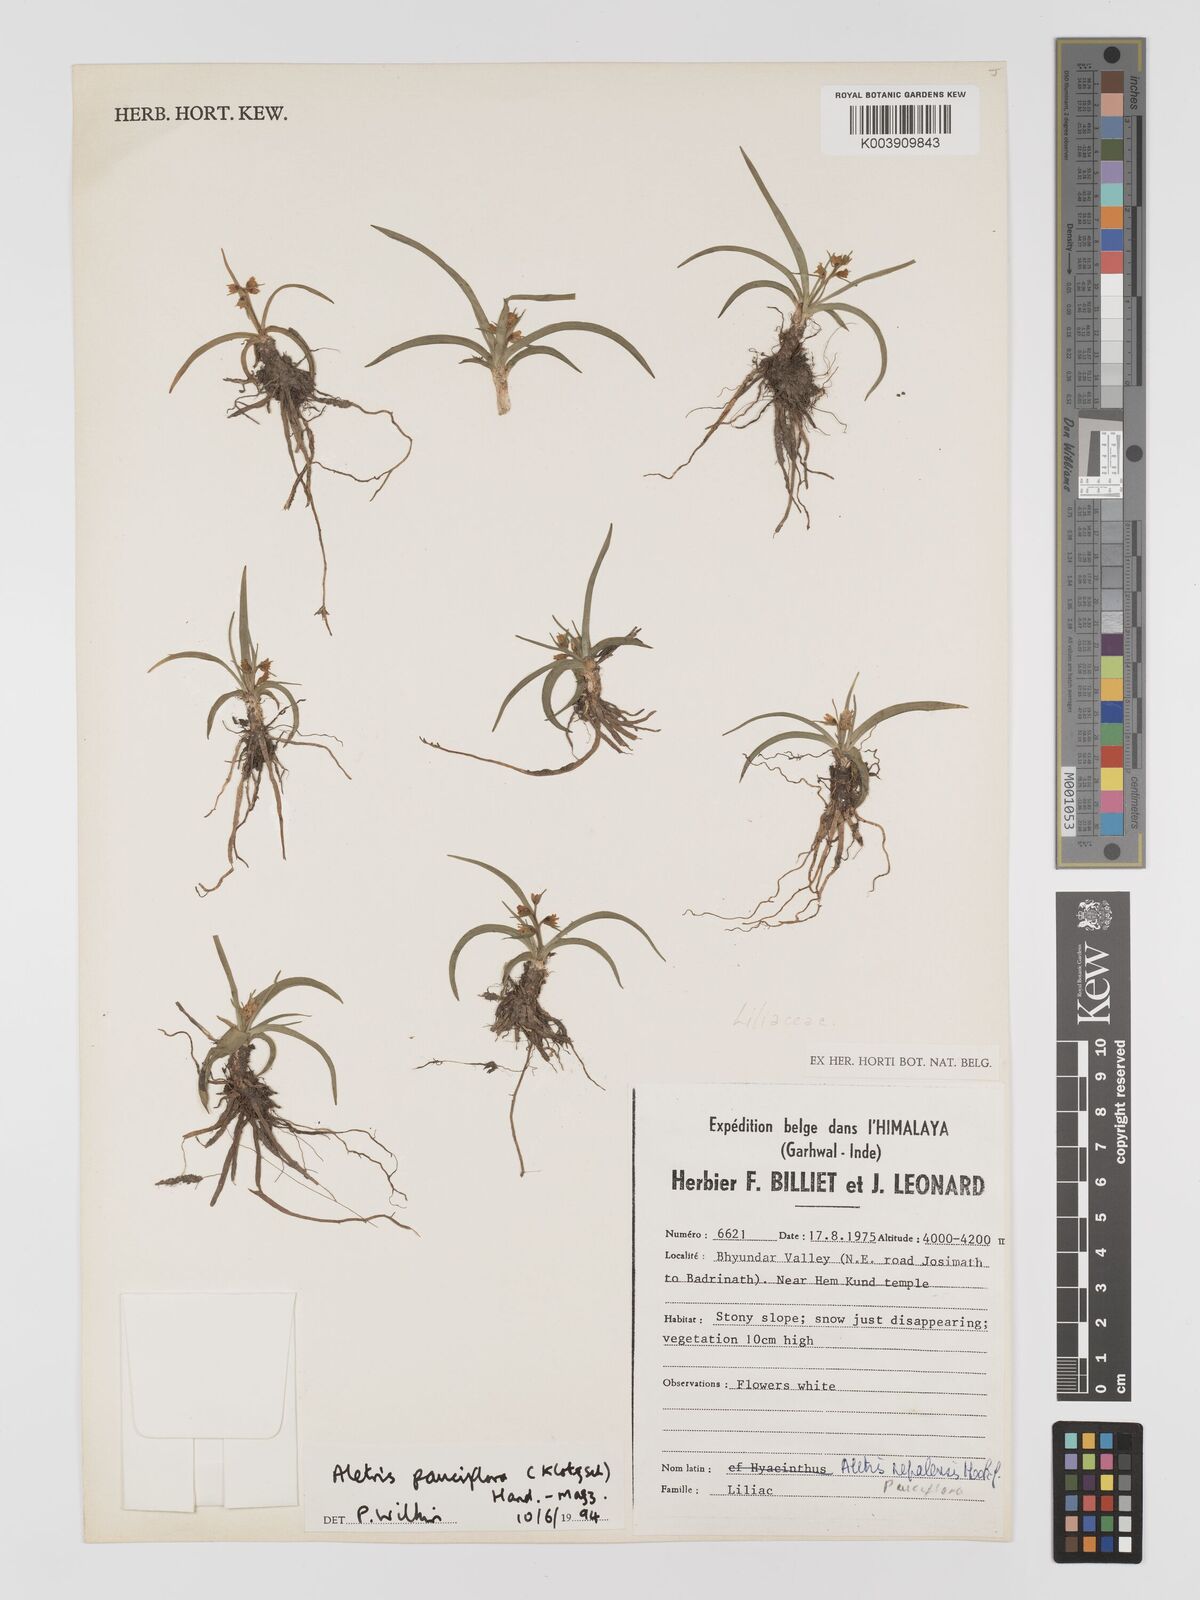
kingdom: Plantae
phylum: Tracheophyta
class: Liliopsida
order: Dioscoreales
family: Nartheciaceae
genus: Aletris
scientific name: Aletris pauciflora
